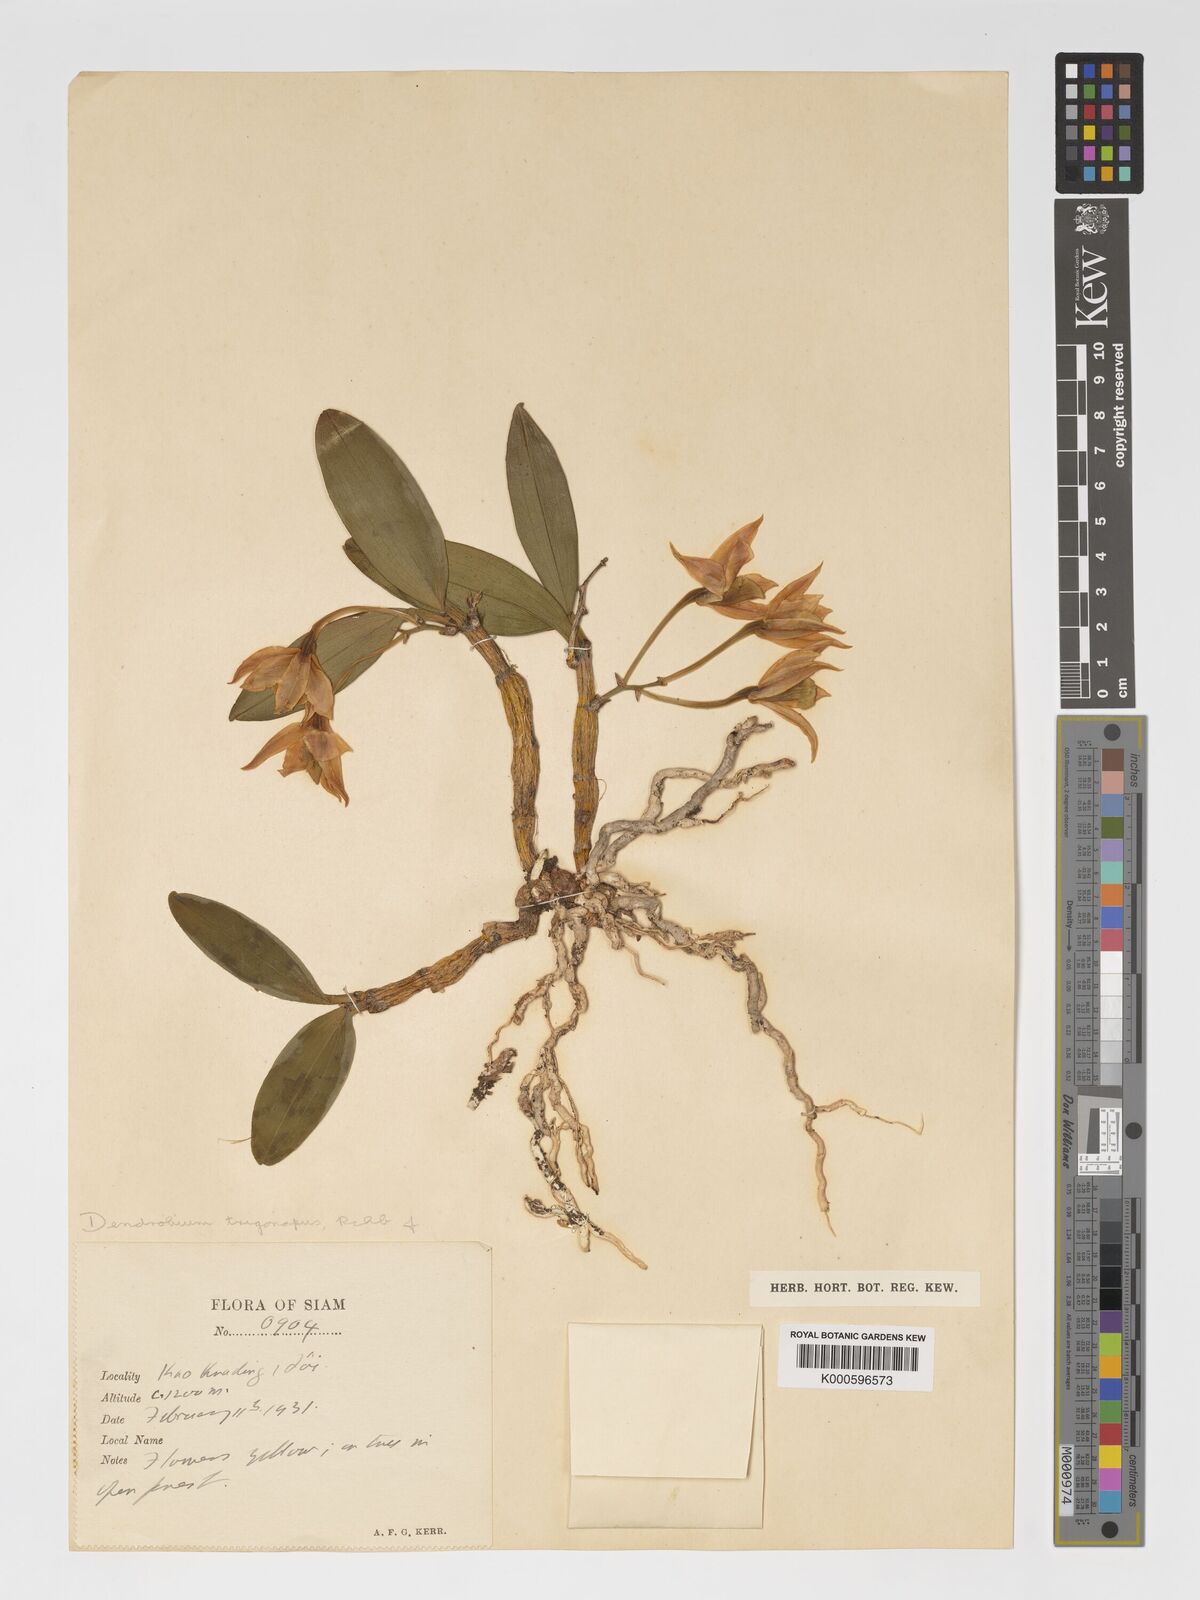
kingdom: Plantae
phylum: Tracheophyta
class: Liliopsida
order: Asparagales
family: Orchidaceae
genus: Dendrobium
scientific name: Dendrobium trigonopus
